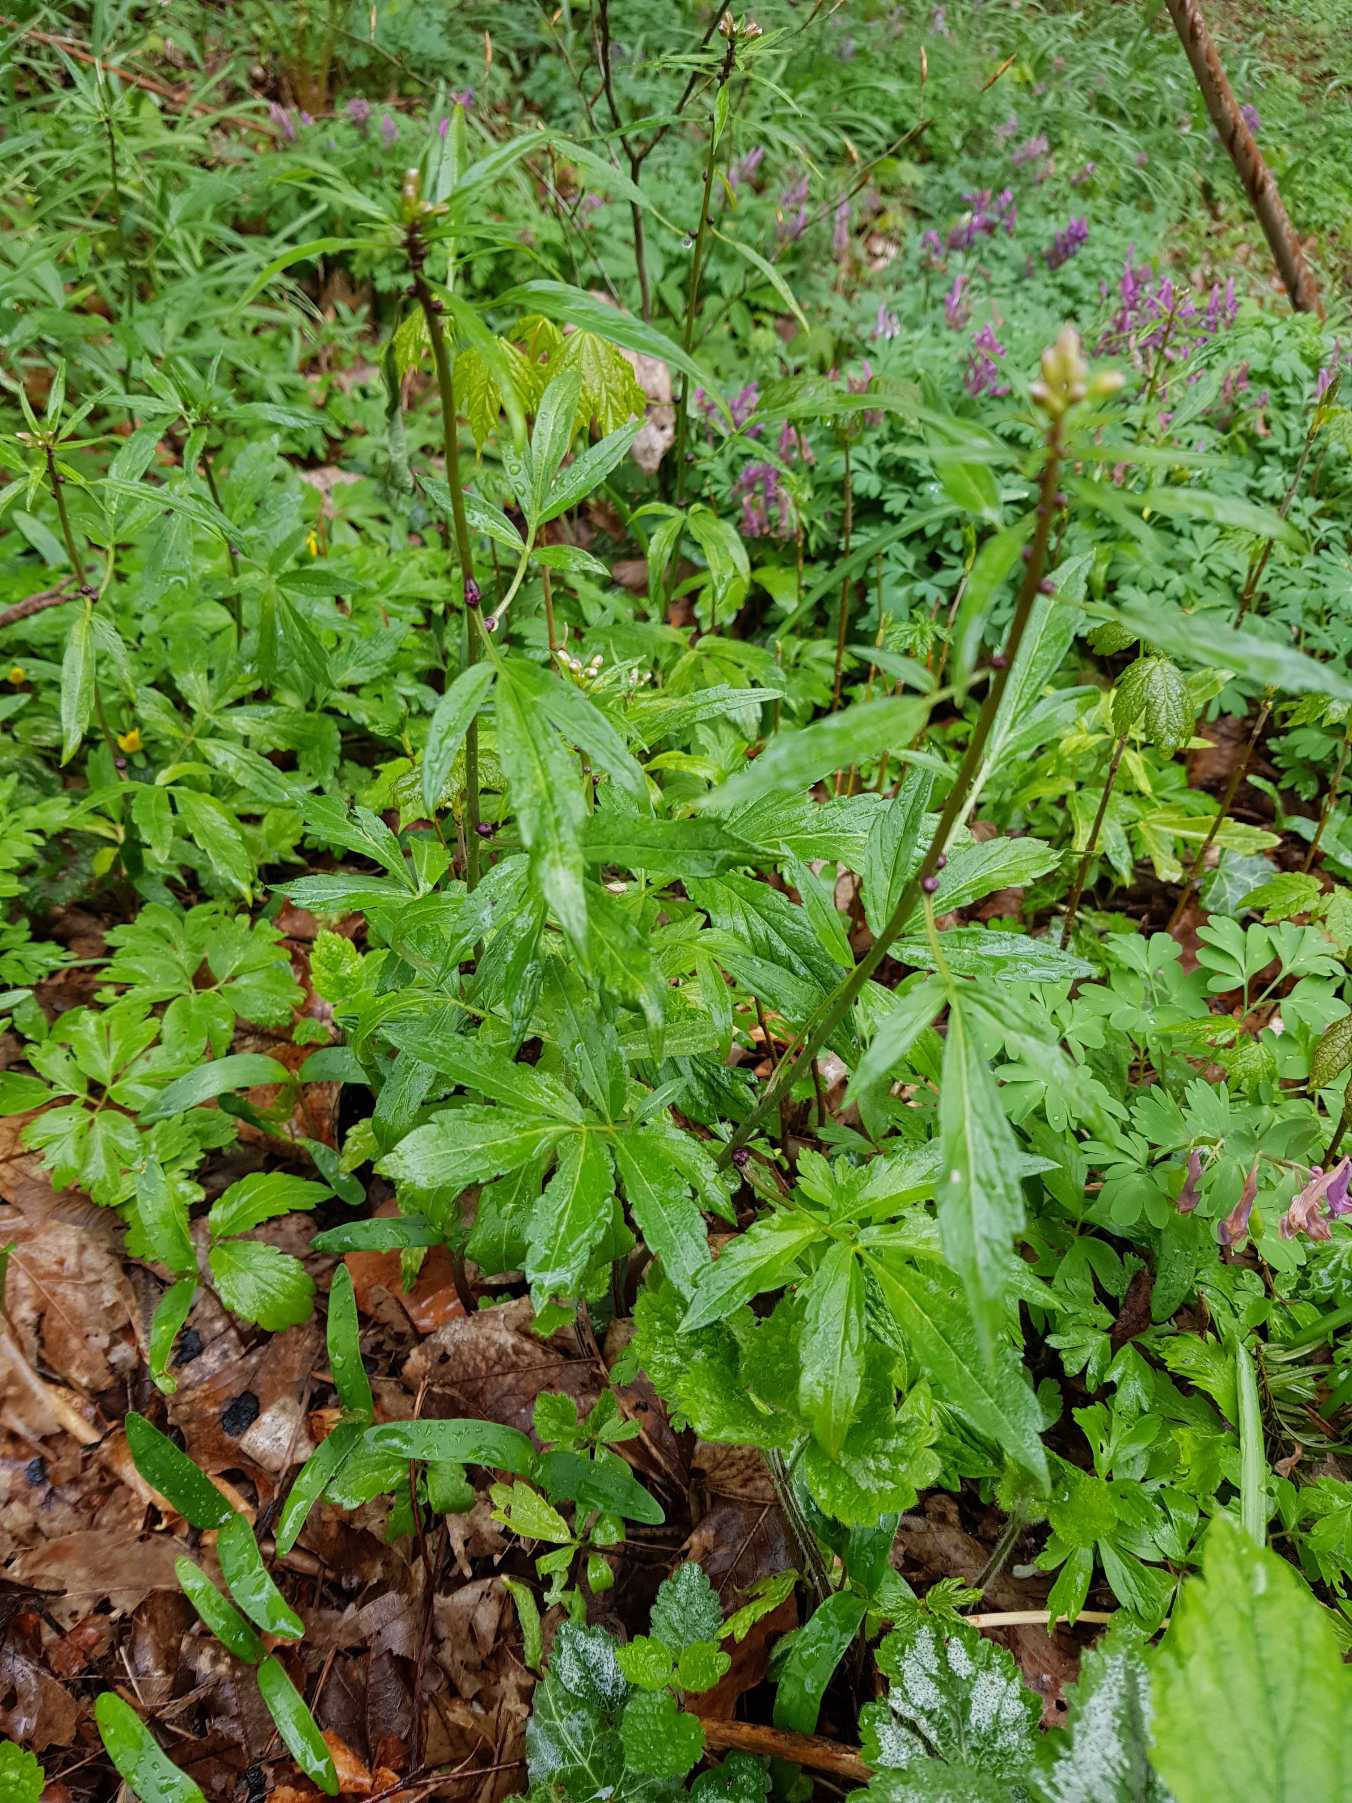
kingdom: Plantae
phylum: Tracheophyta
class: Magnoliopsida
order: Brassicales
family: Brassicaceae
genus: Cardamine
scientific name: Cardamine bulbifera
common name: Tandrod
